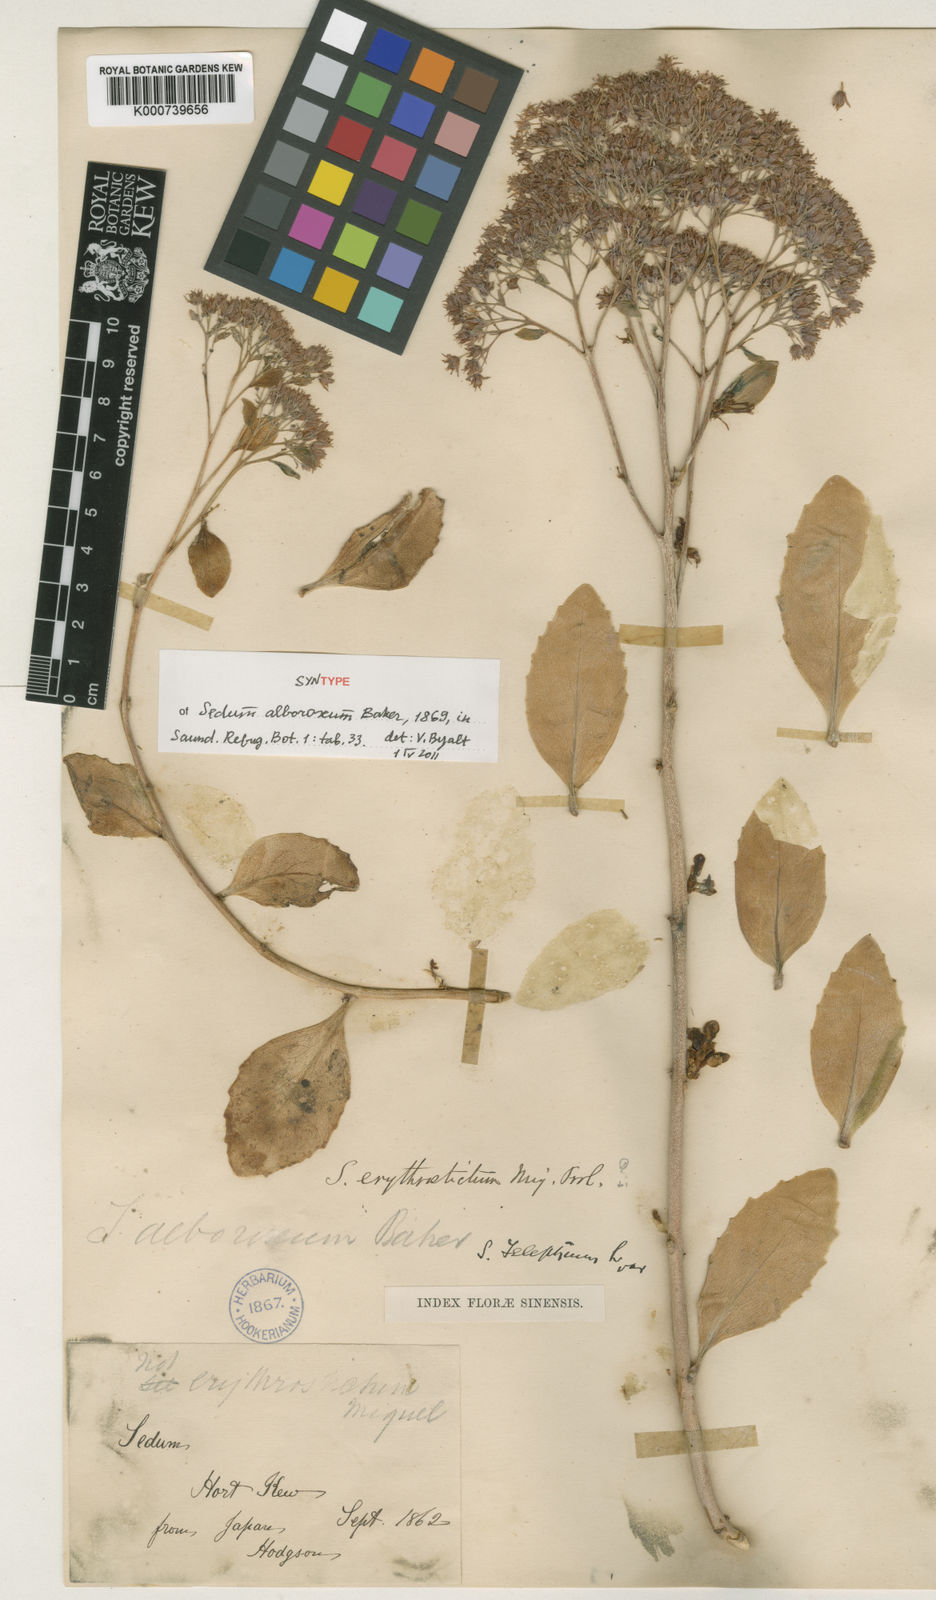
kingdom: Plantae
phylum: Tracheophyta
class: Magnoliopsida
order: Saxifragales
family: Crassulaceae
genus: Hylotelephium
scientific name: Hylotelephium erythrostictum
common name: Garden stonecrop
